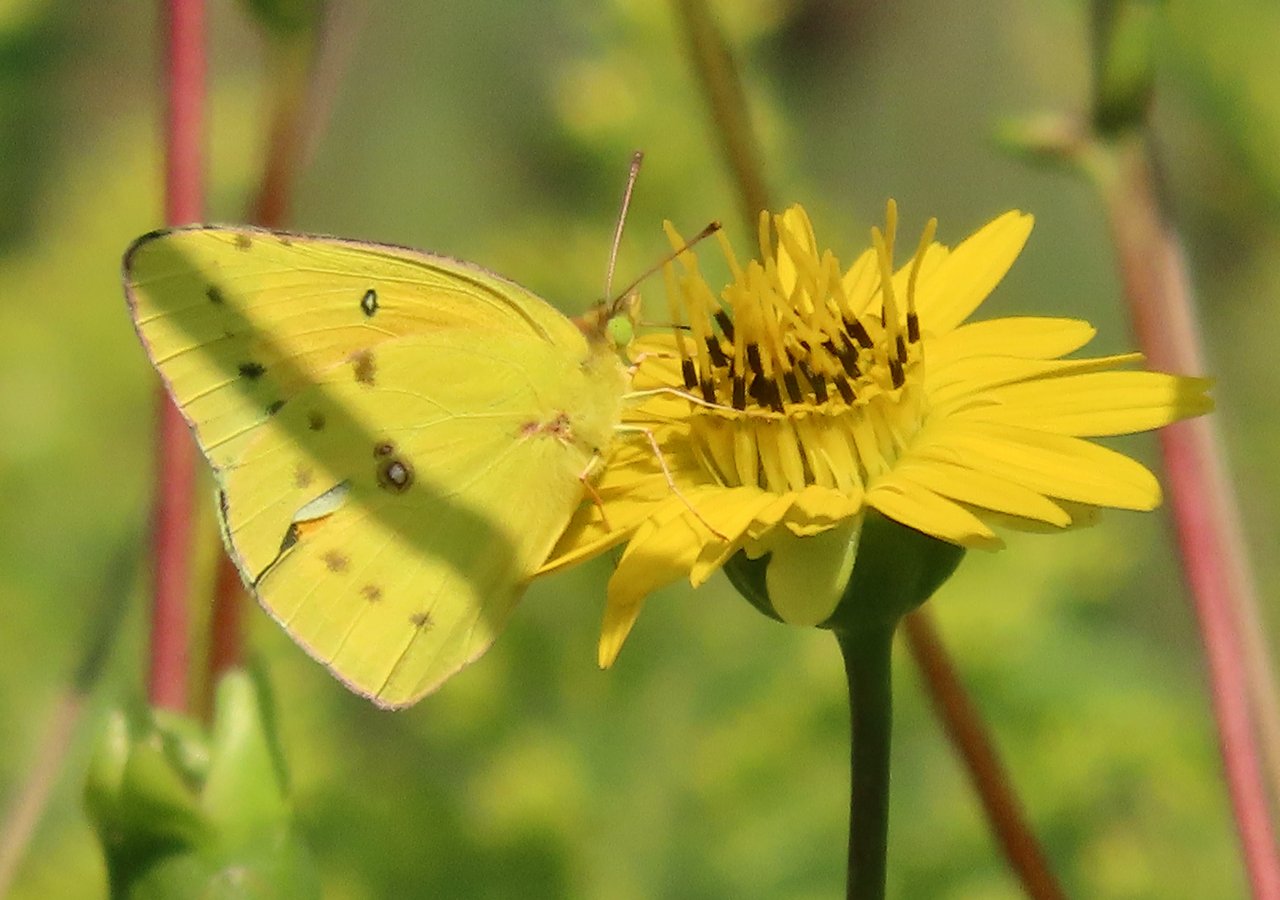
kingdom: Animalia
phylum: Arthropoda
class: Insecta
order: Lepidoptera
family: Pieridae
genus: Colias
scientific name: Colias eurytheme
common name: Orange Sulphur
